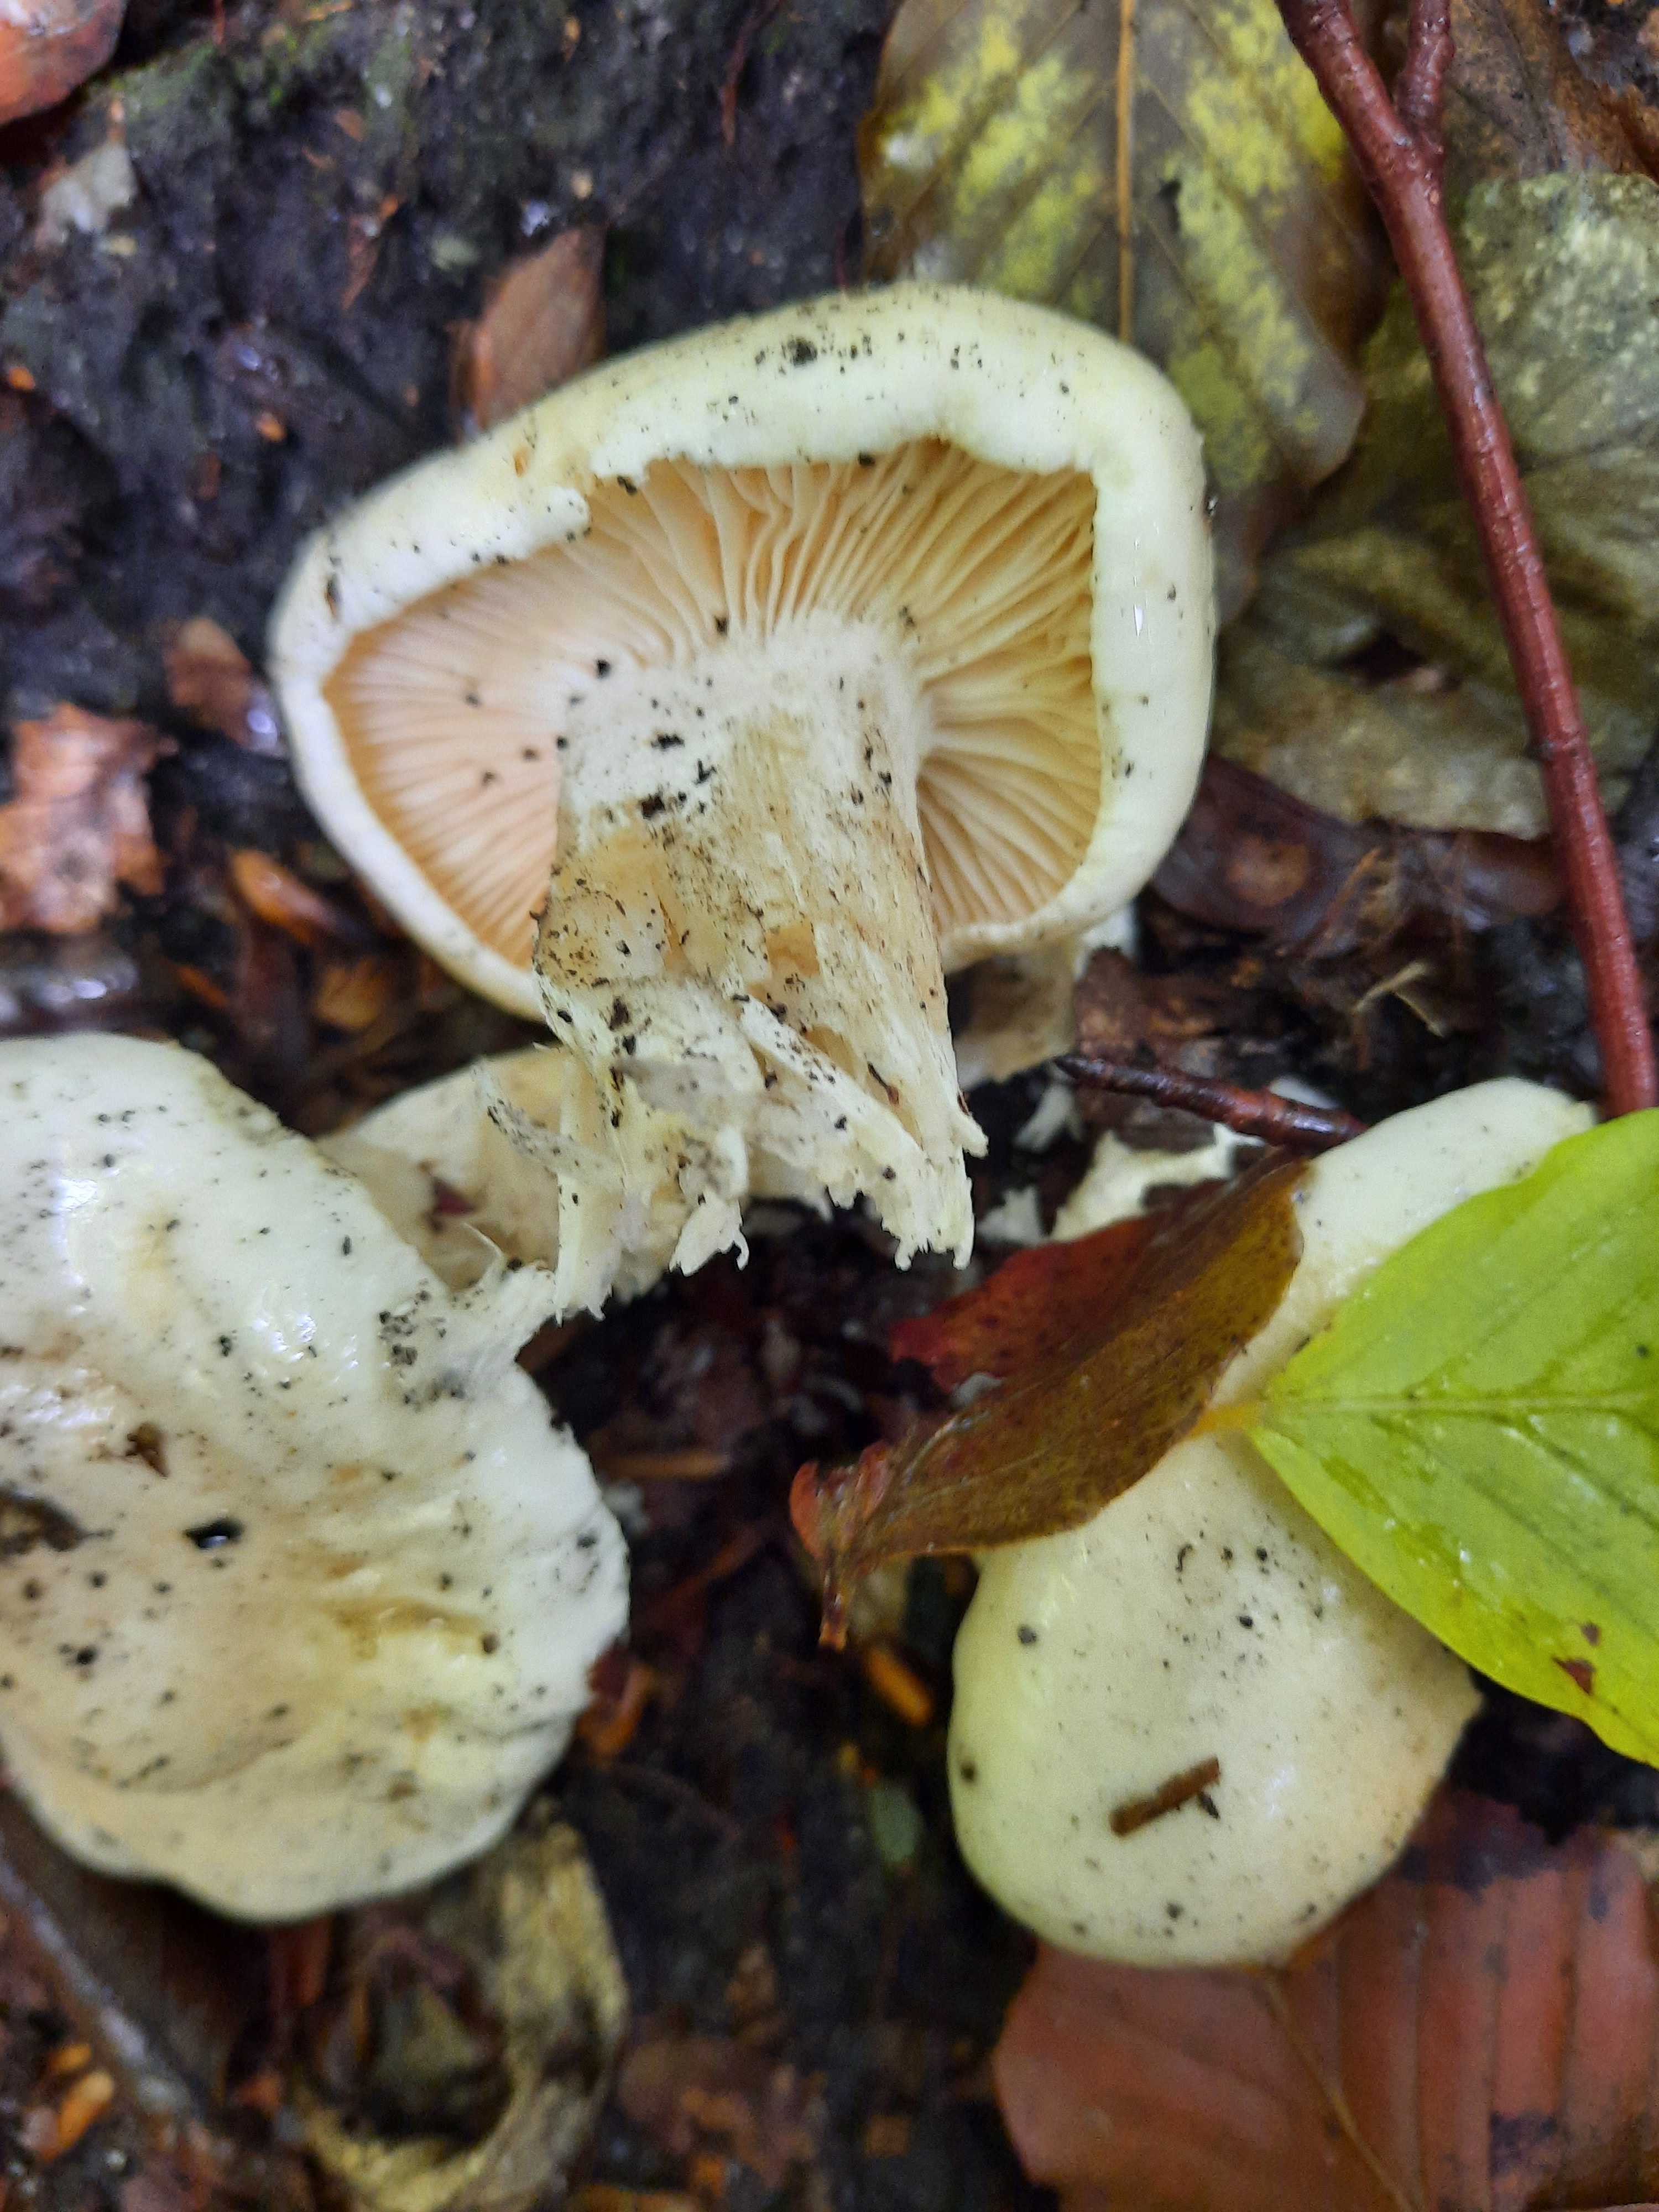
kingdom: Fungi
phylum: Basidiomycota
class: Agaricomycetes
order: Agaricales
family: Hygrophoraceae
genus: Hygrophorus
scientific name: Hygrophorus
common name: sneglehat
